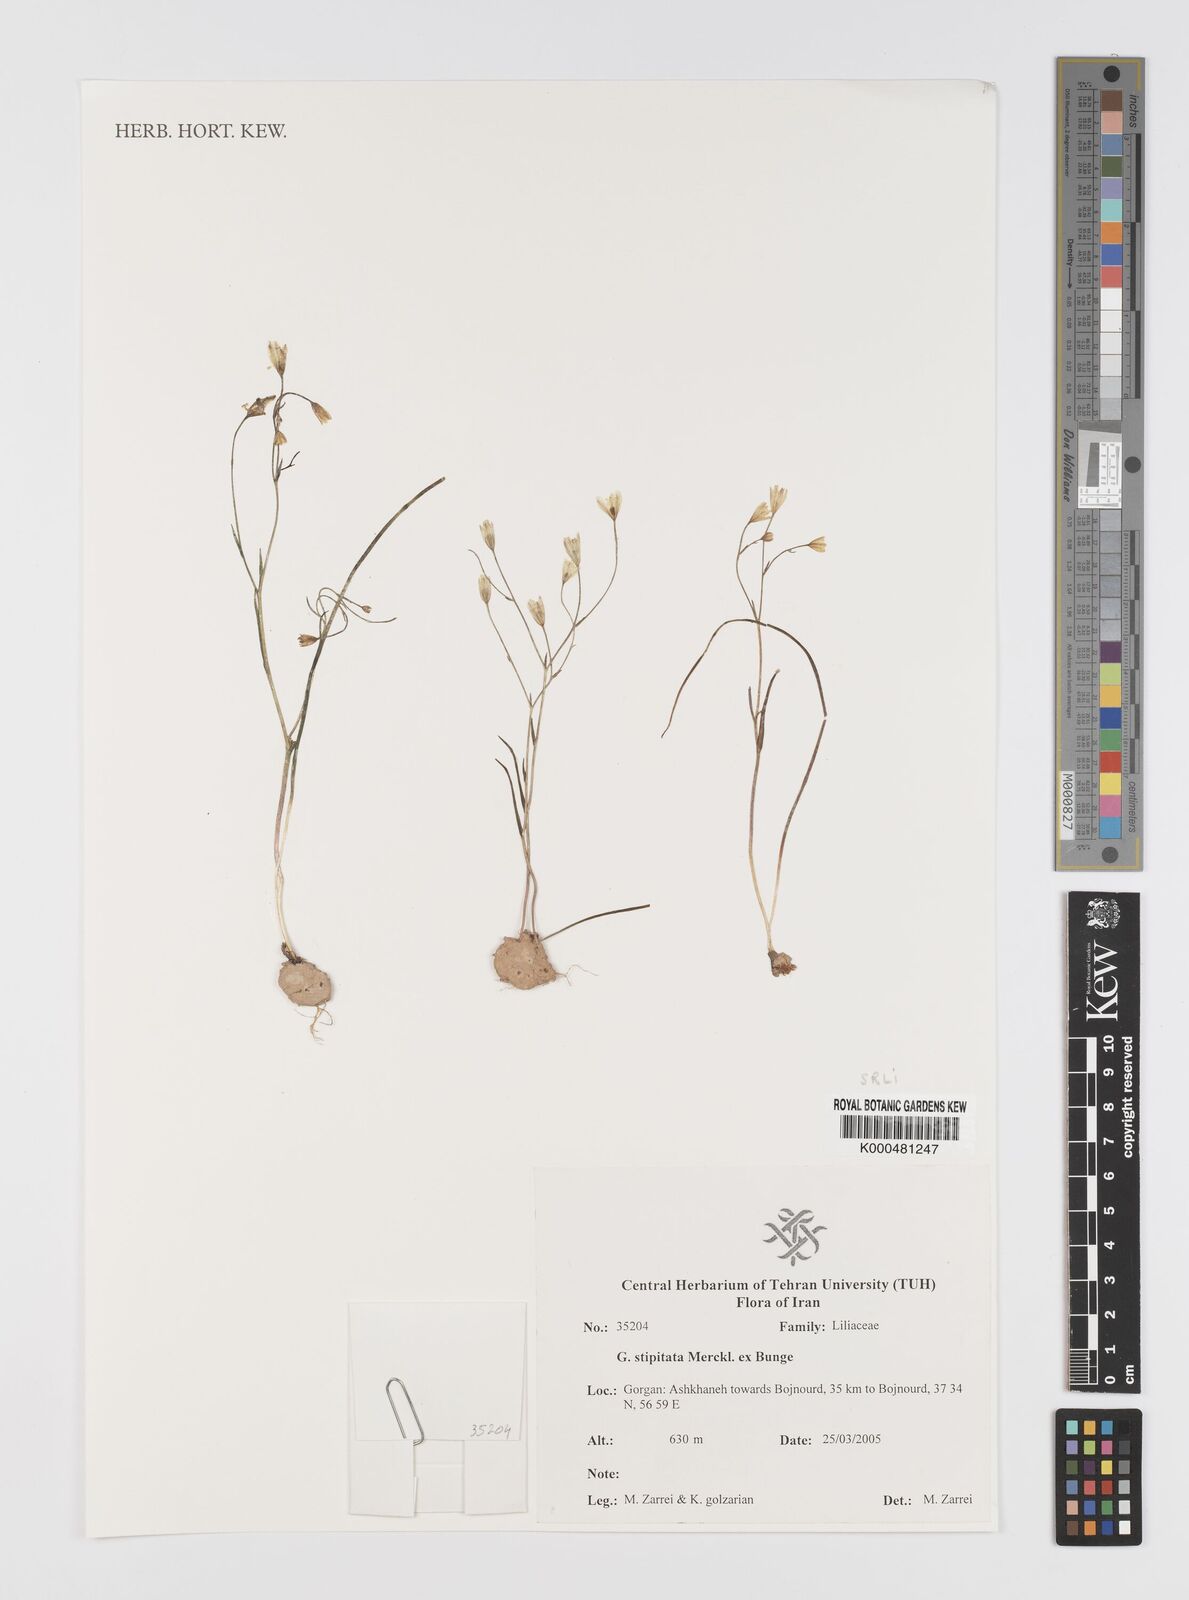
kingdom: Plantae
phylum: Tracheophyta
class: Liliopsida
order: Liliales
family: Liliaceae
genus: Gagea
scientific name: Gagea kunawurensis
